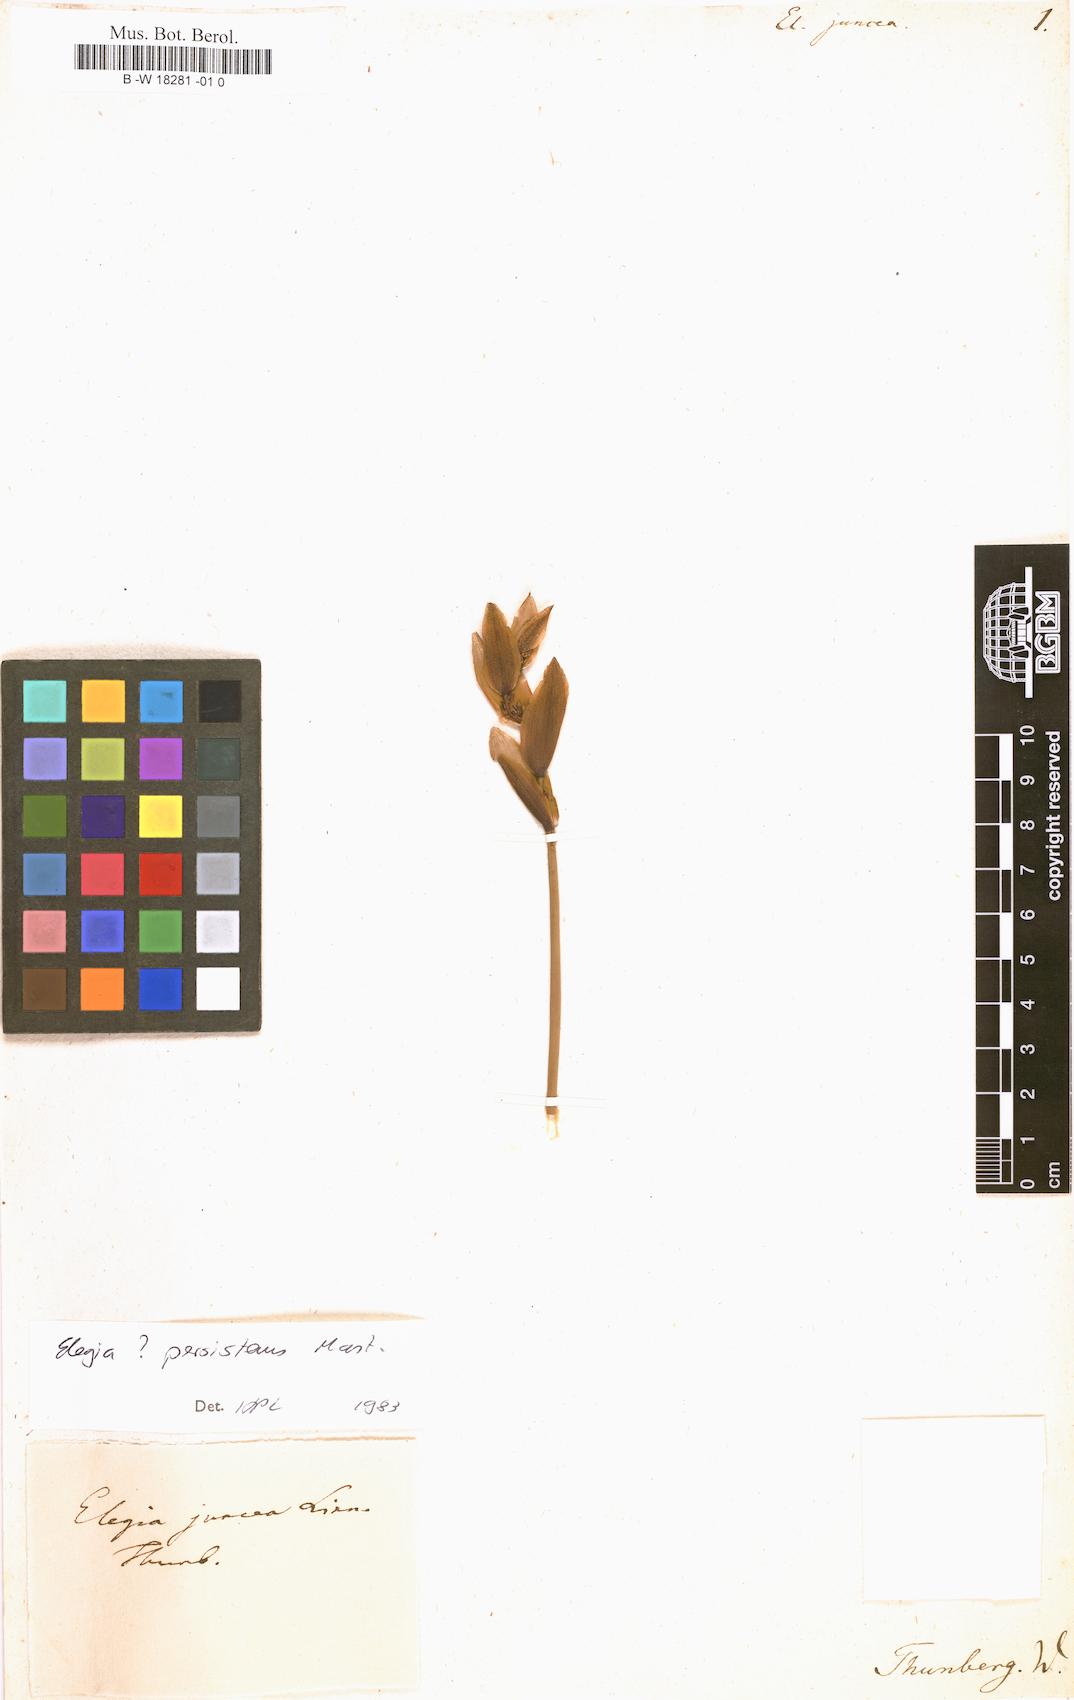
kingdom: Plantae
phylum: Tracheophyta
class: Liliopsida
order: Poales
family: Restionaceae
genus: Elegia
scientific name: Elegia juncea
